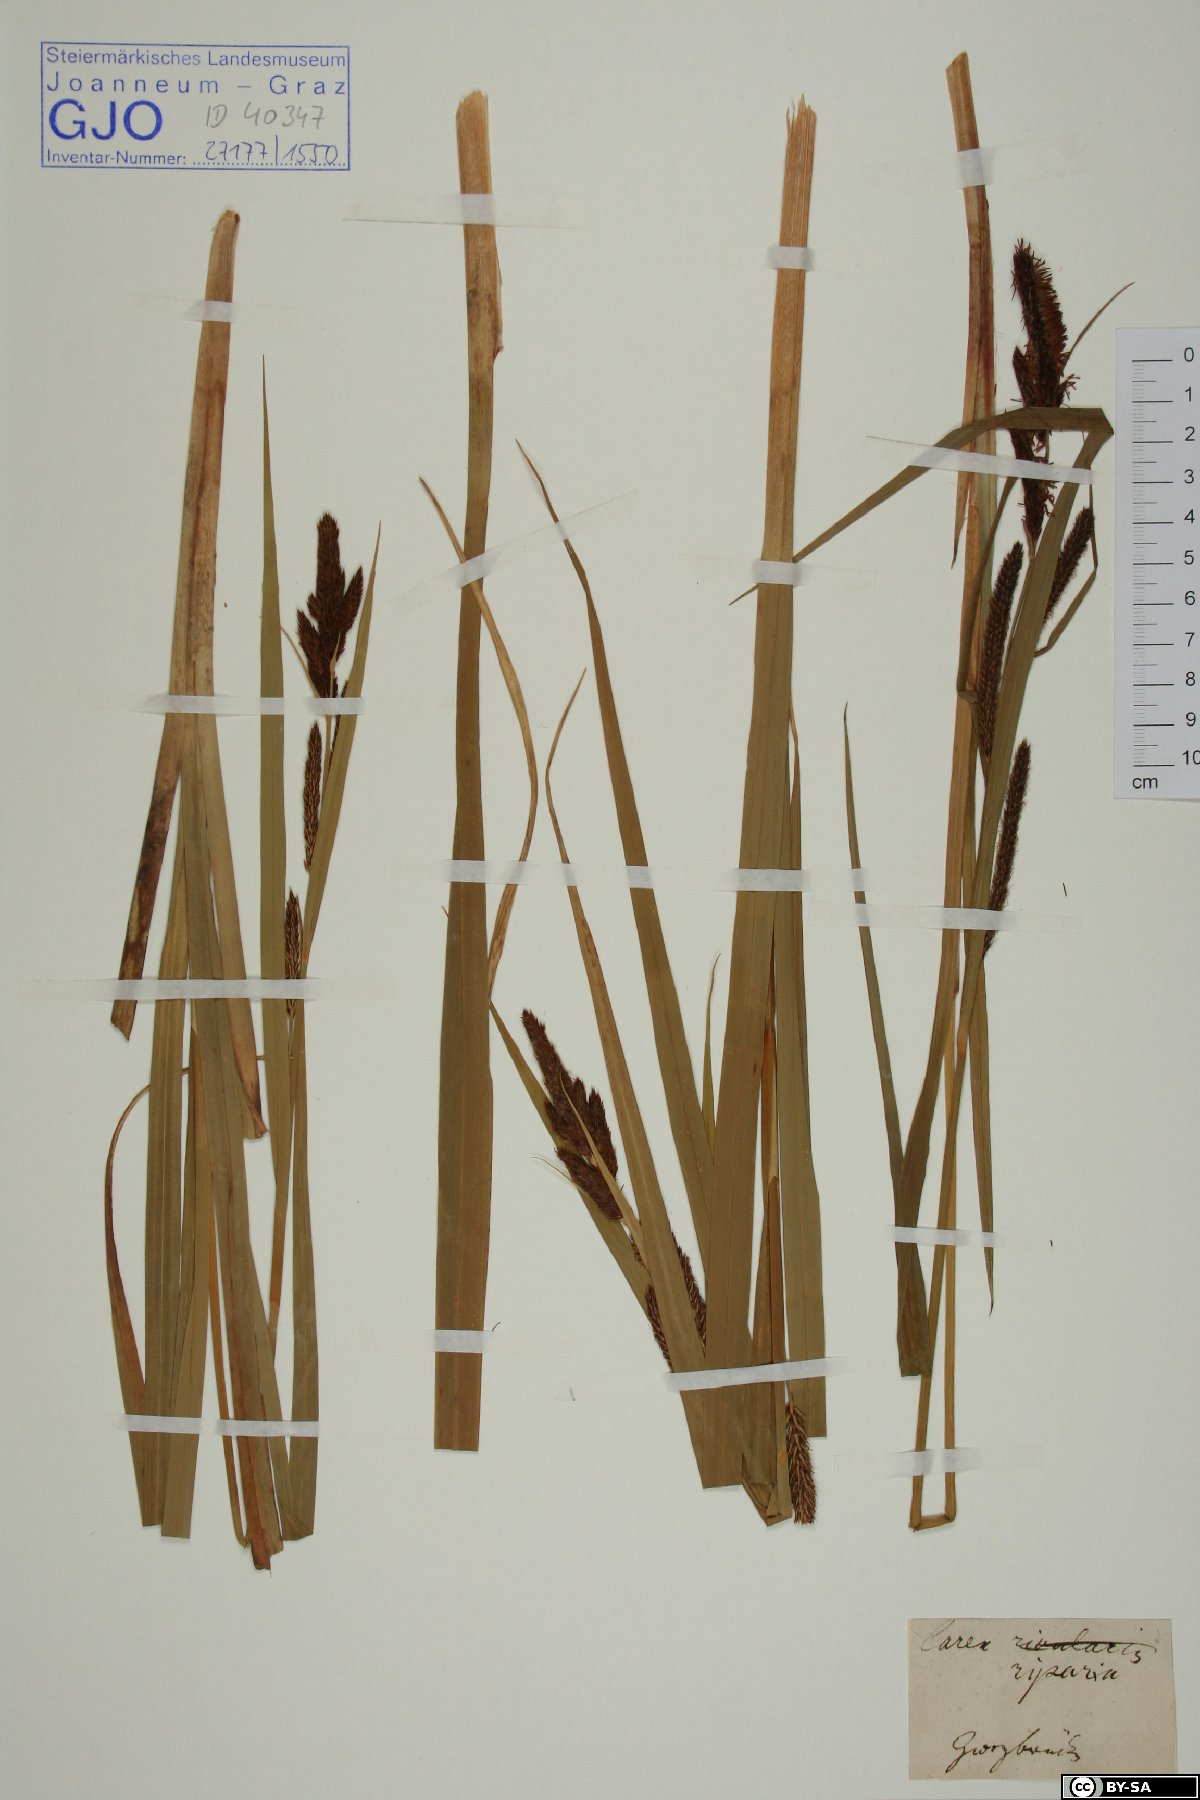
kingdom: Plantae
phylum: Tracheophyta
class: Liliopsida
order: Poales
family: Cyperaceae
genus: Carex
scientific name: Carex riparia
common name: Greater pond-sedge
